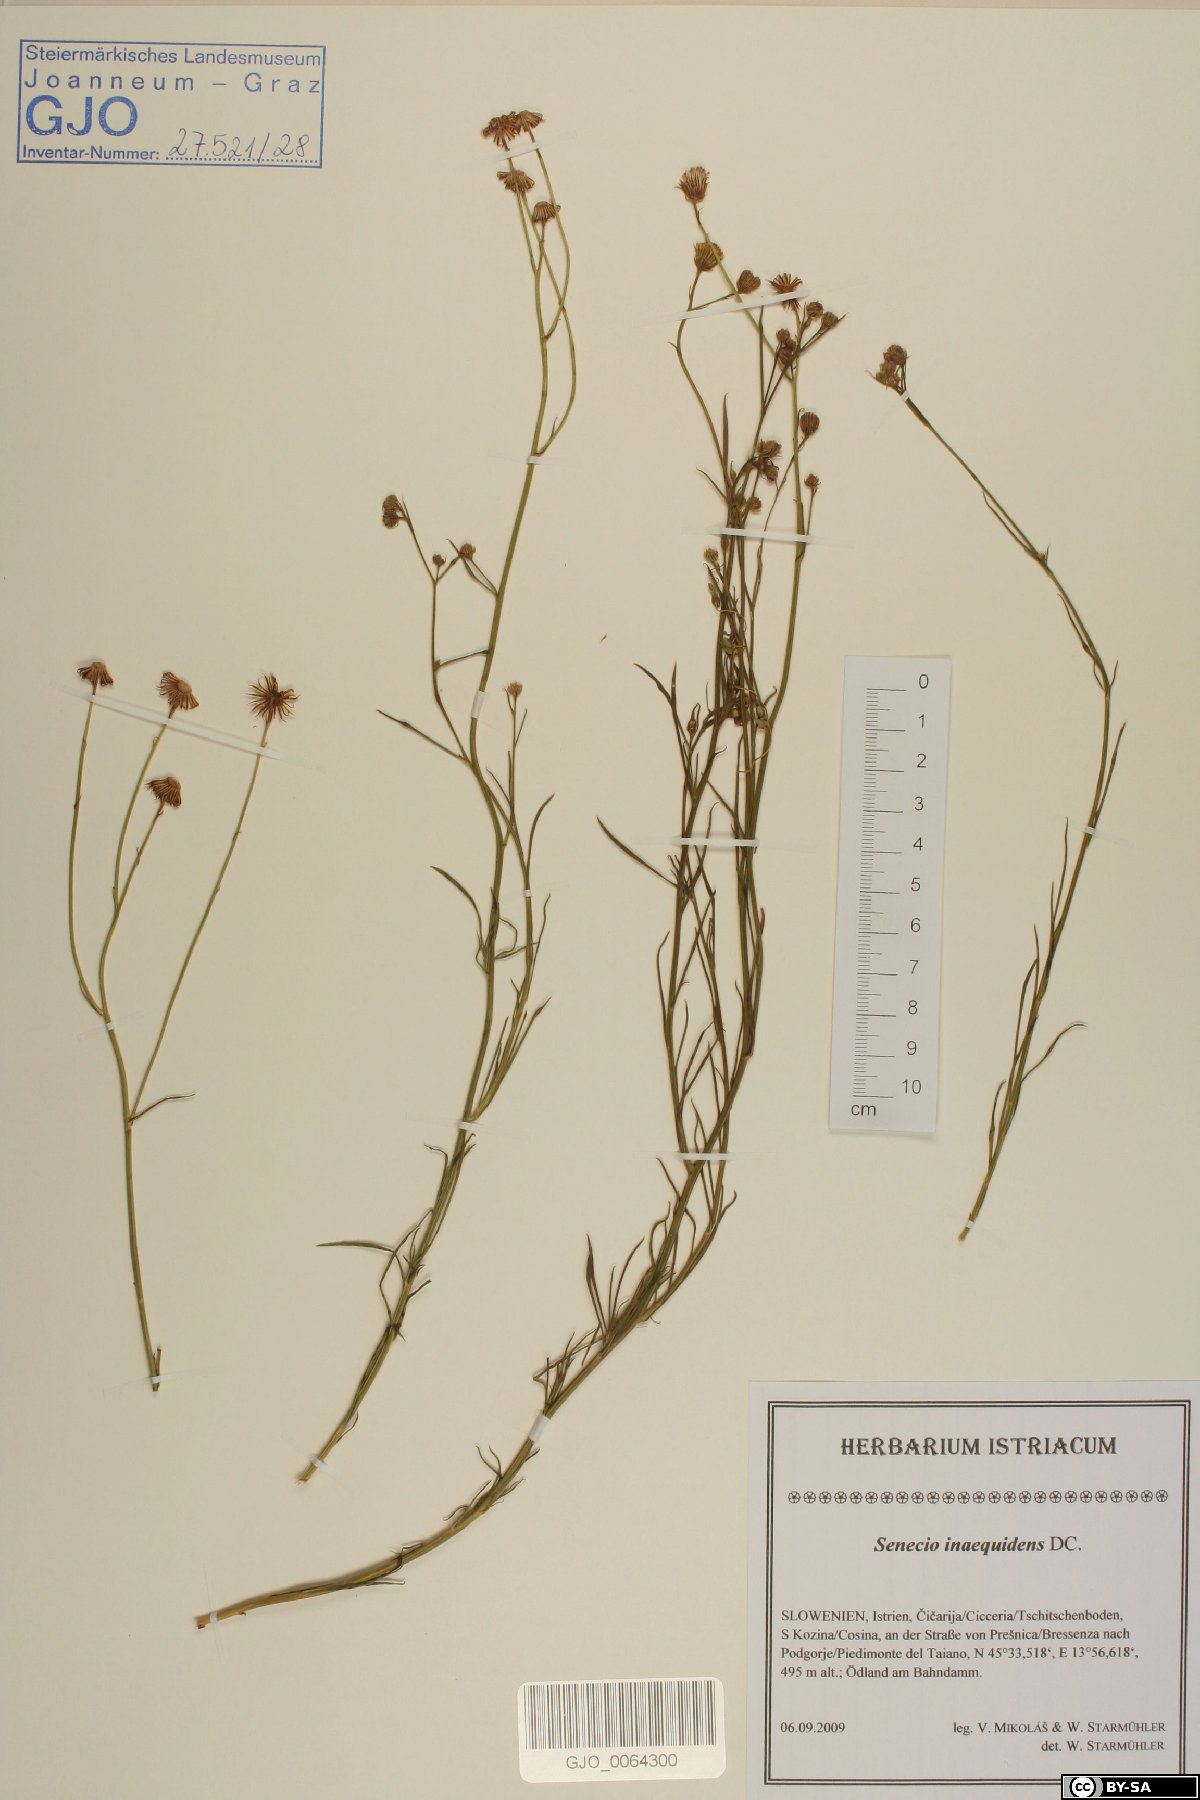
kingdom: Plantae
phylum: Tracheophyta
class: Magnoliopsida
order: Asterales
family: Asteraceae
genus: Senecio
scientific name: Senecio inaequidens
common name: Narrow-leaved ragwort
